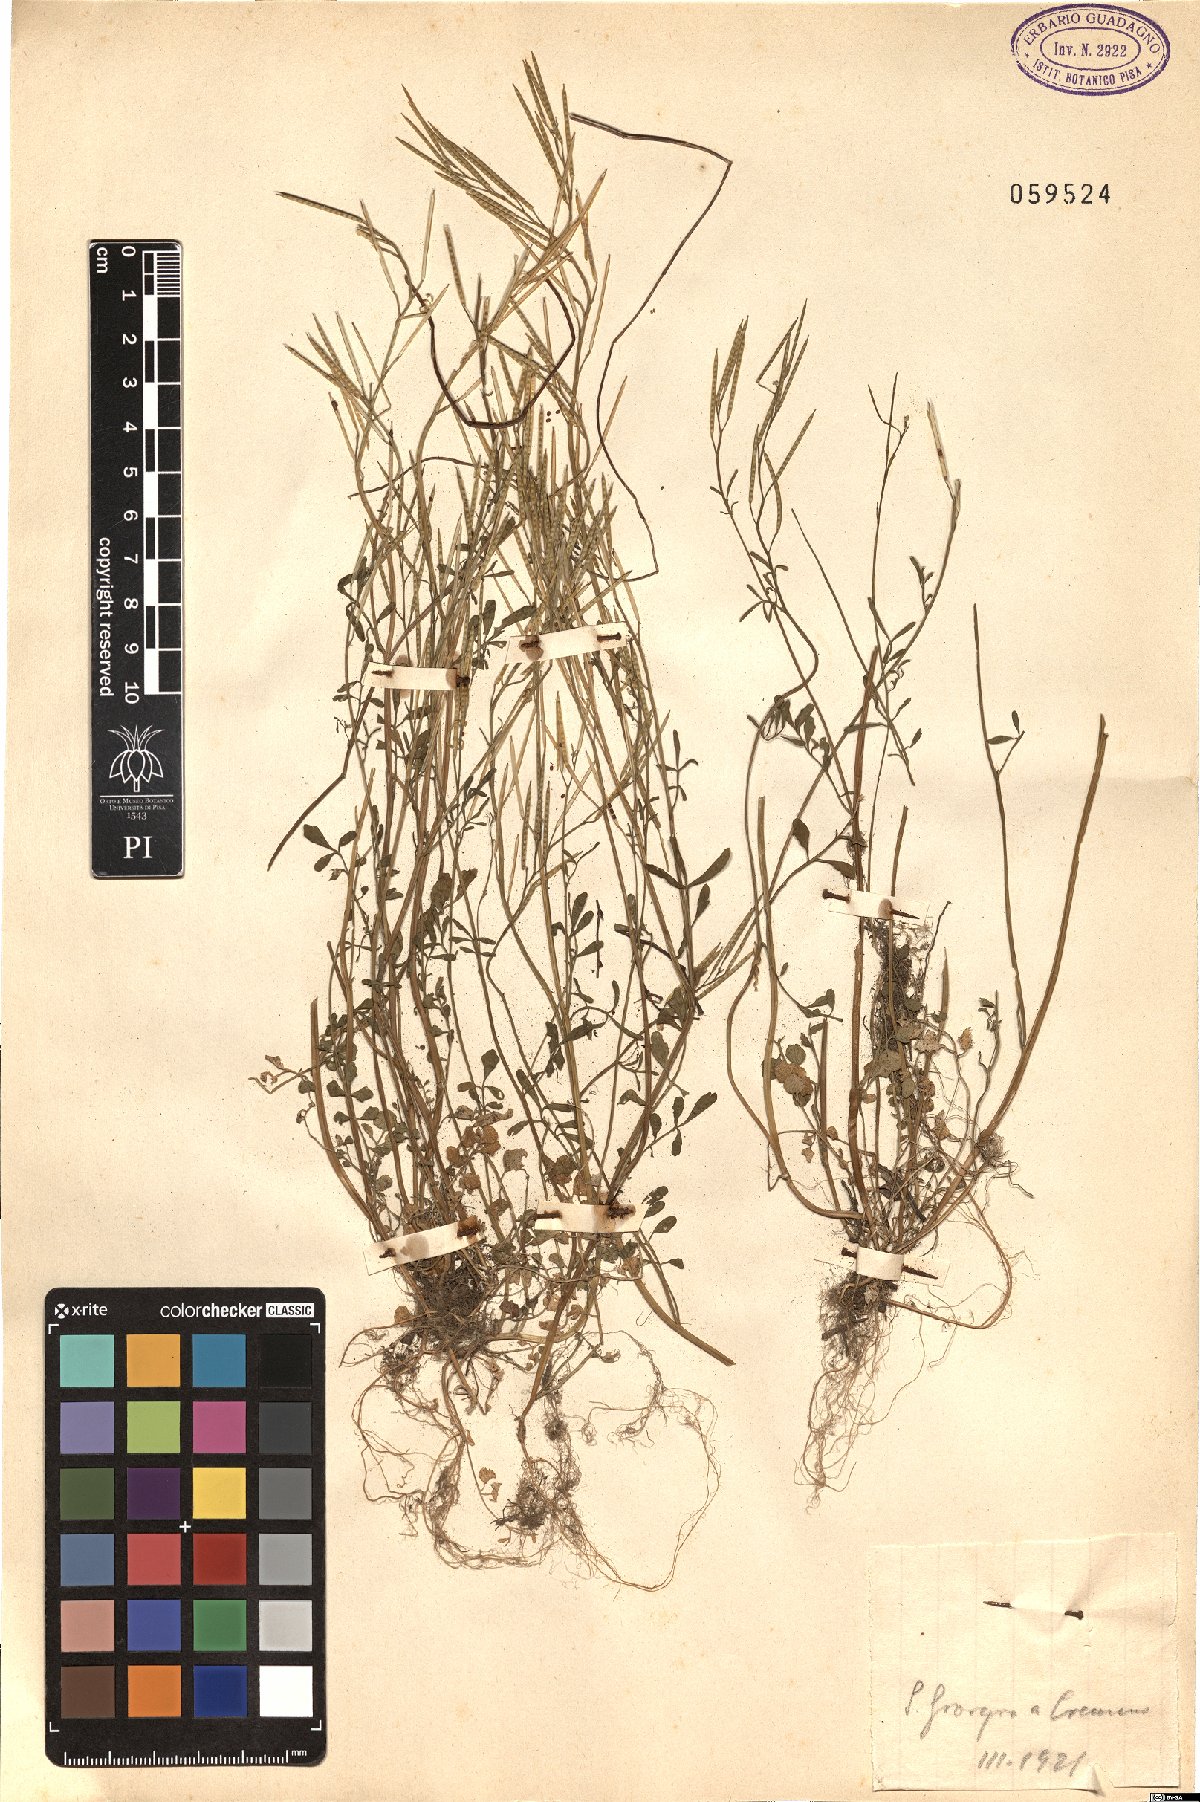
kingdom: Plantae
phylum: Tracheophyta
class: Magnoliopsida
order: Brassicales
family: Brassicaceae
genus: Cardamine
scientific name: Cardamine
